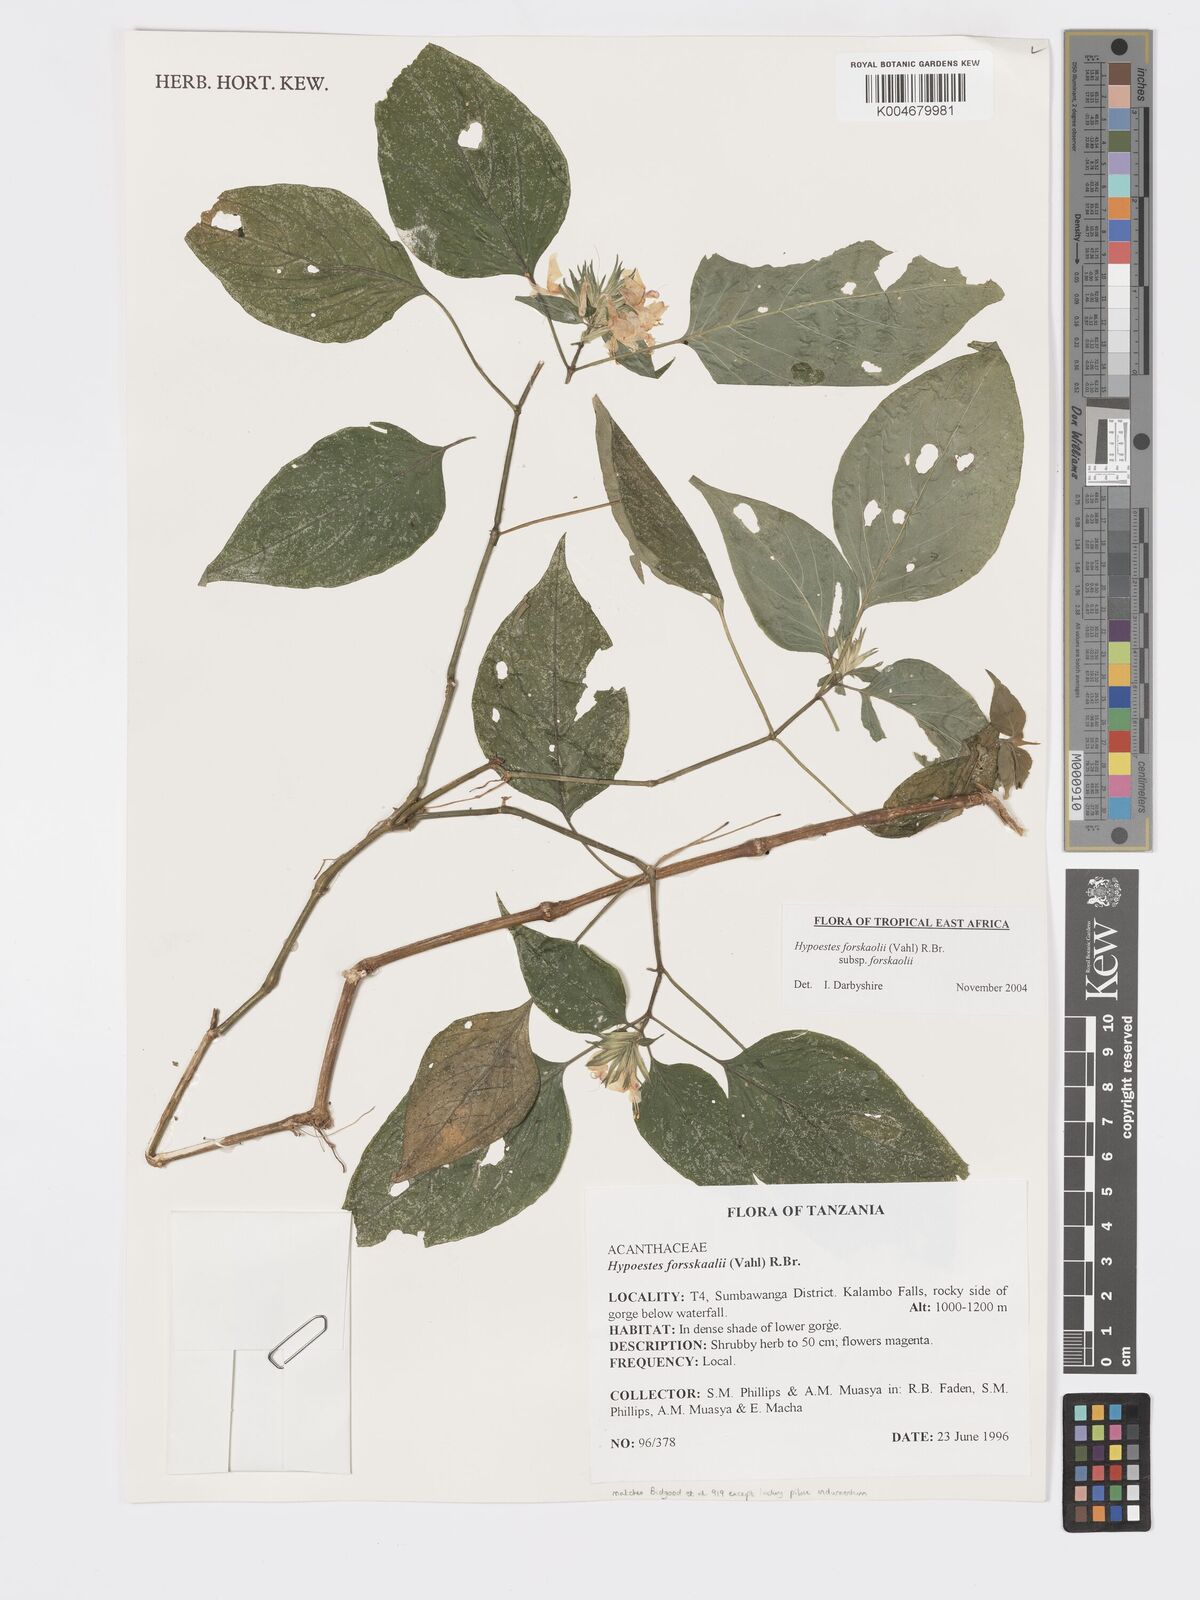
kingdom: Plantae
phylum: Tracheophyta
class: Magnoliopsida
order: Lamiales
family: Acanthaceae
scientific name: Acanthaceae
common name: Acanthaceae
